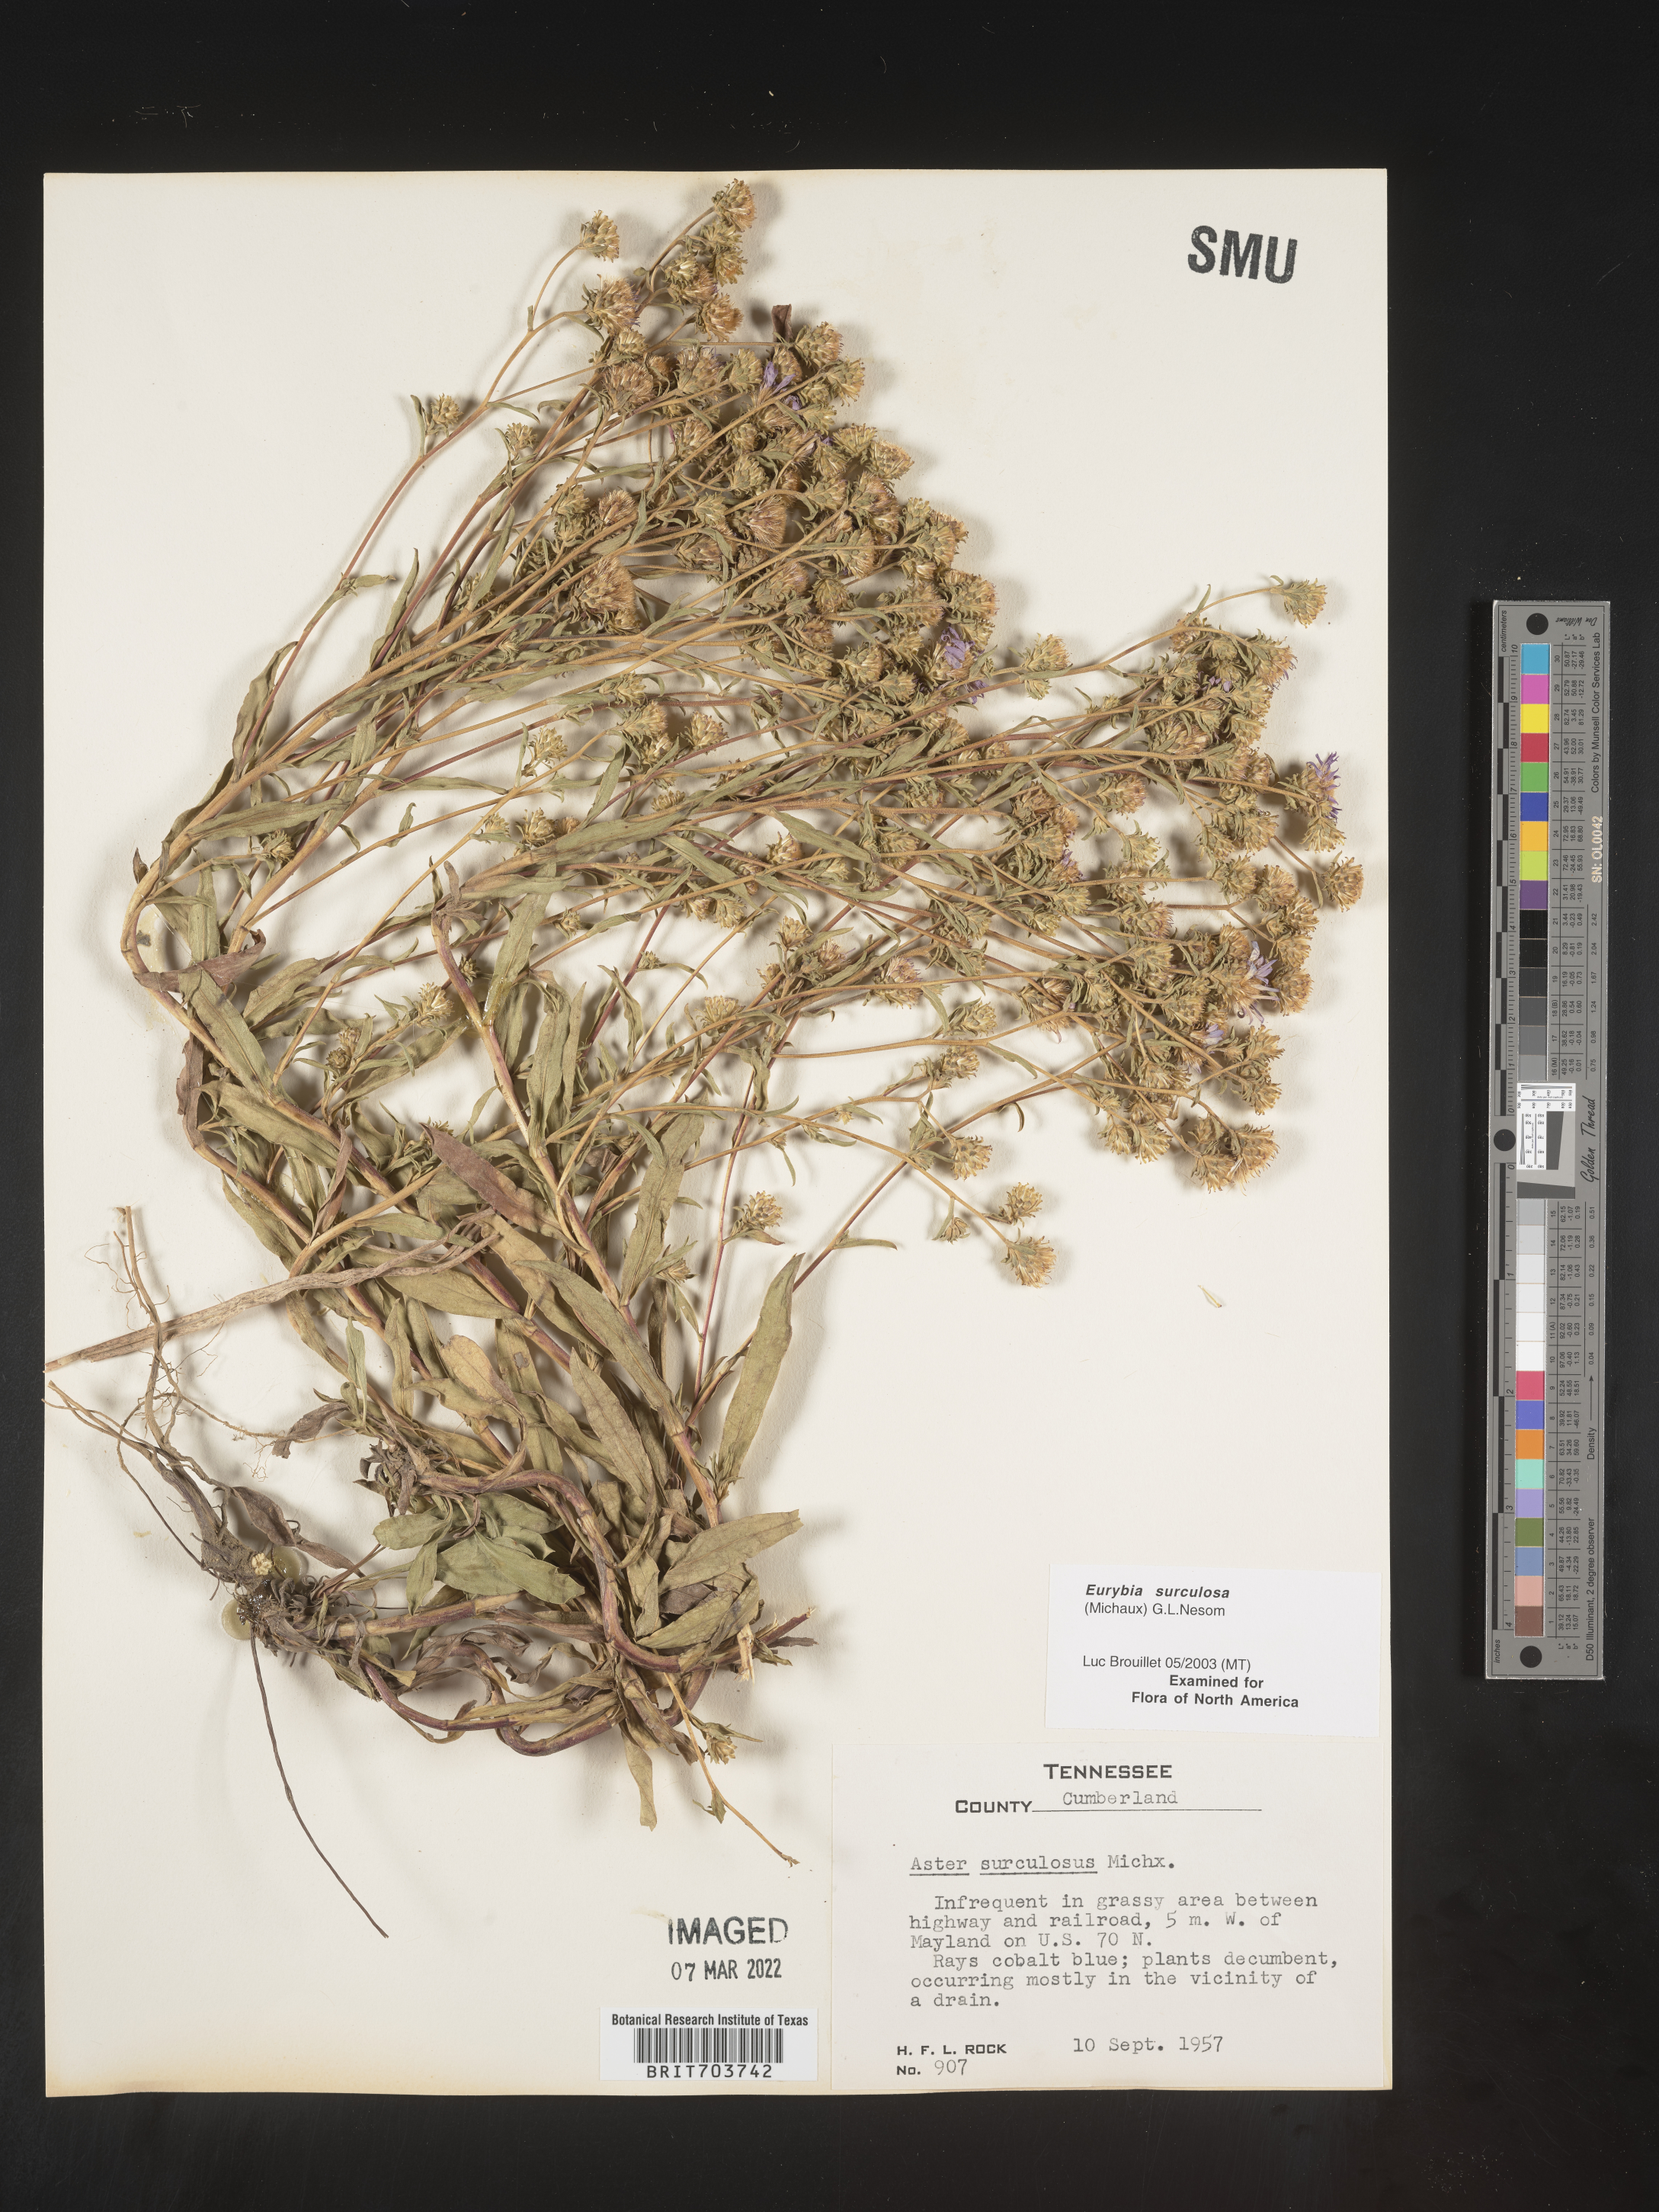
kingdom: Plantae
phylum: Tracheophyta
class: Magnoliopsida
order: Asterales
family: Asteraceae
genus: Eurybia
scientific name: Eurybia surculosa
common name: Creeping aster
